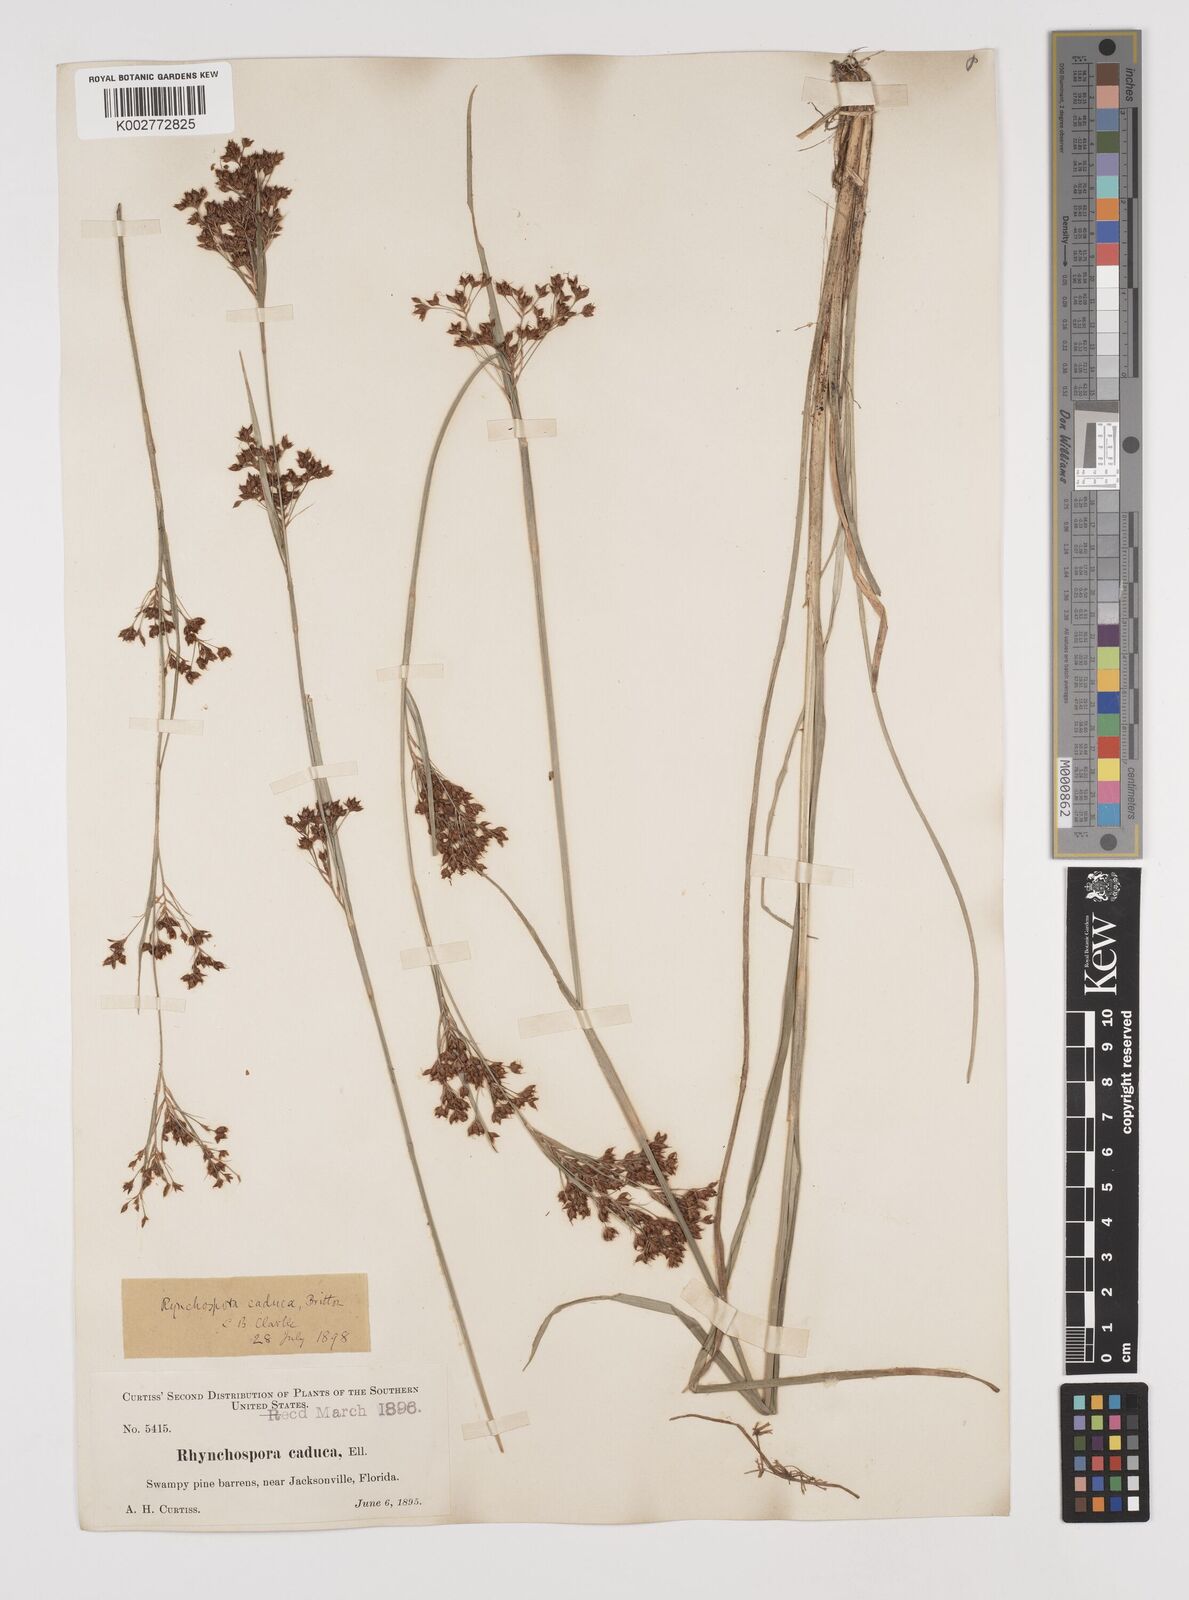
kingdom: Plantae
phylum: Tracheophyta
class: Liliopsida
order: Poales
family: Cyperaceae
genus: Rhynchospora
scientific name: Rhynchospora caduca
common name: Anglestem beaksedge
